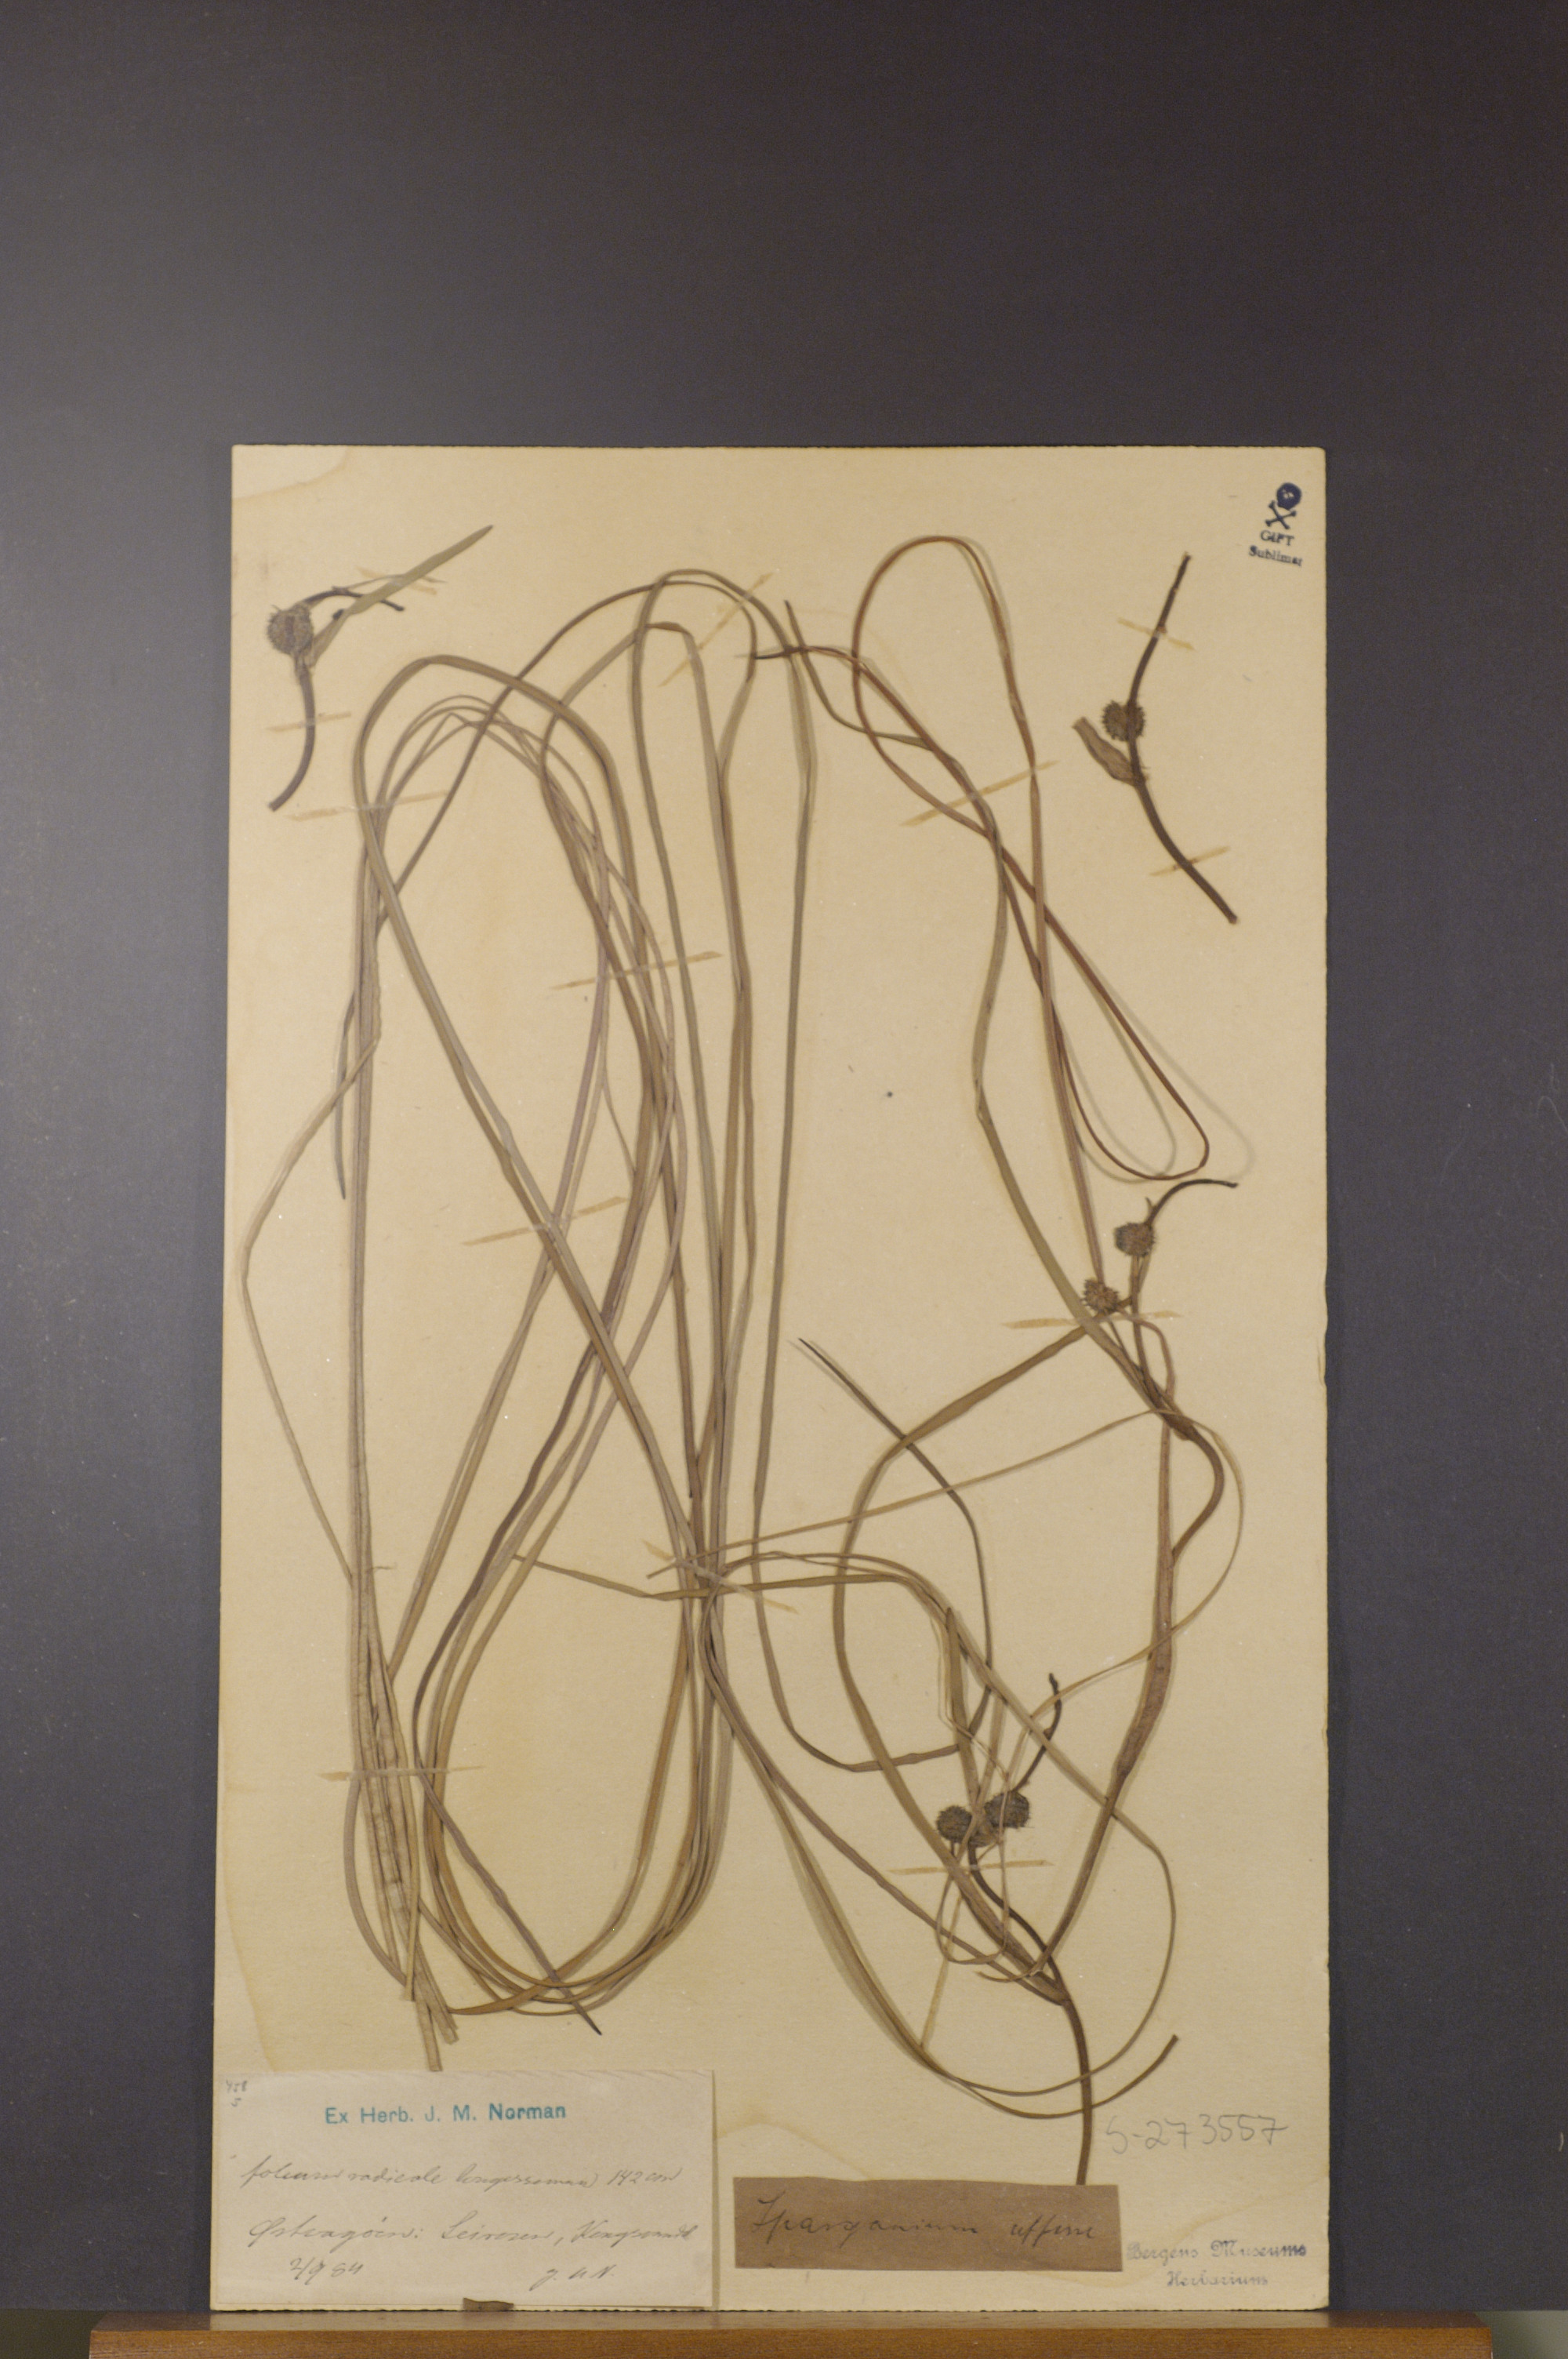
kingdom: Plantae
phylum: Tracheophyta
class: Liliopsida
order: Poales
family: Typhaceae
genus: Sparganium
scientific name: Sparganium angustifolium
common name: Floating bur-reed
